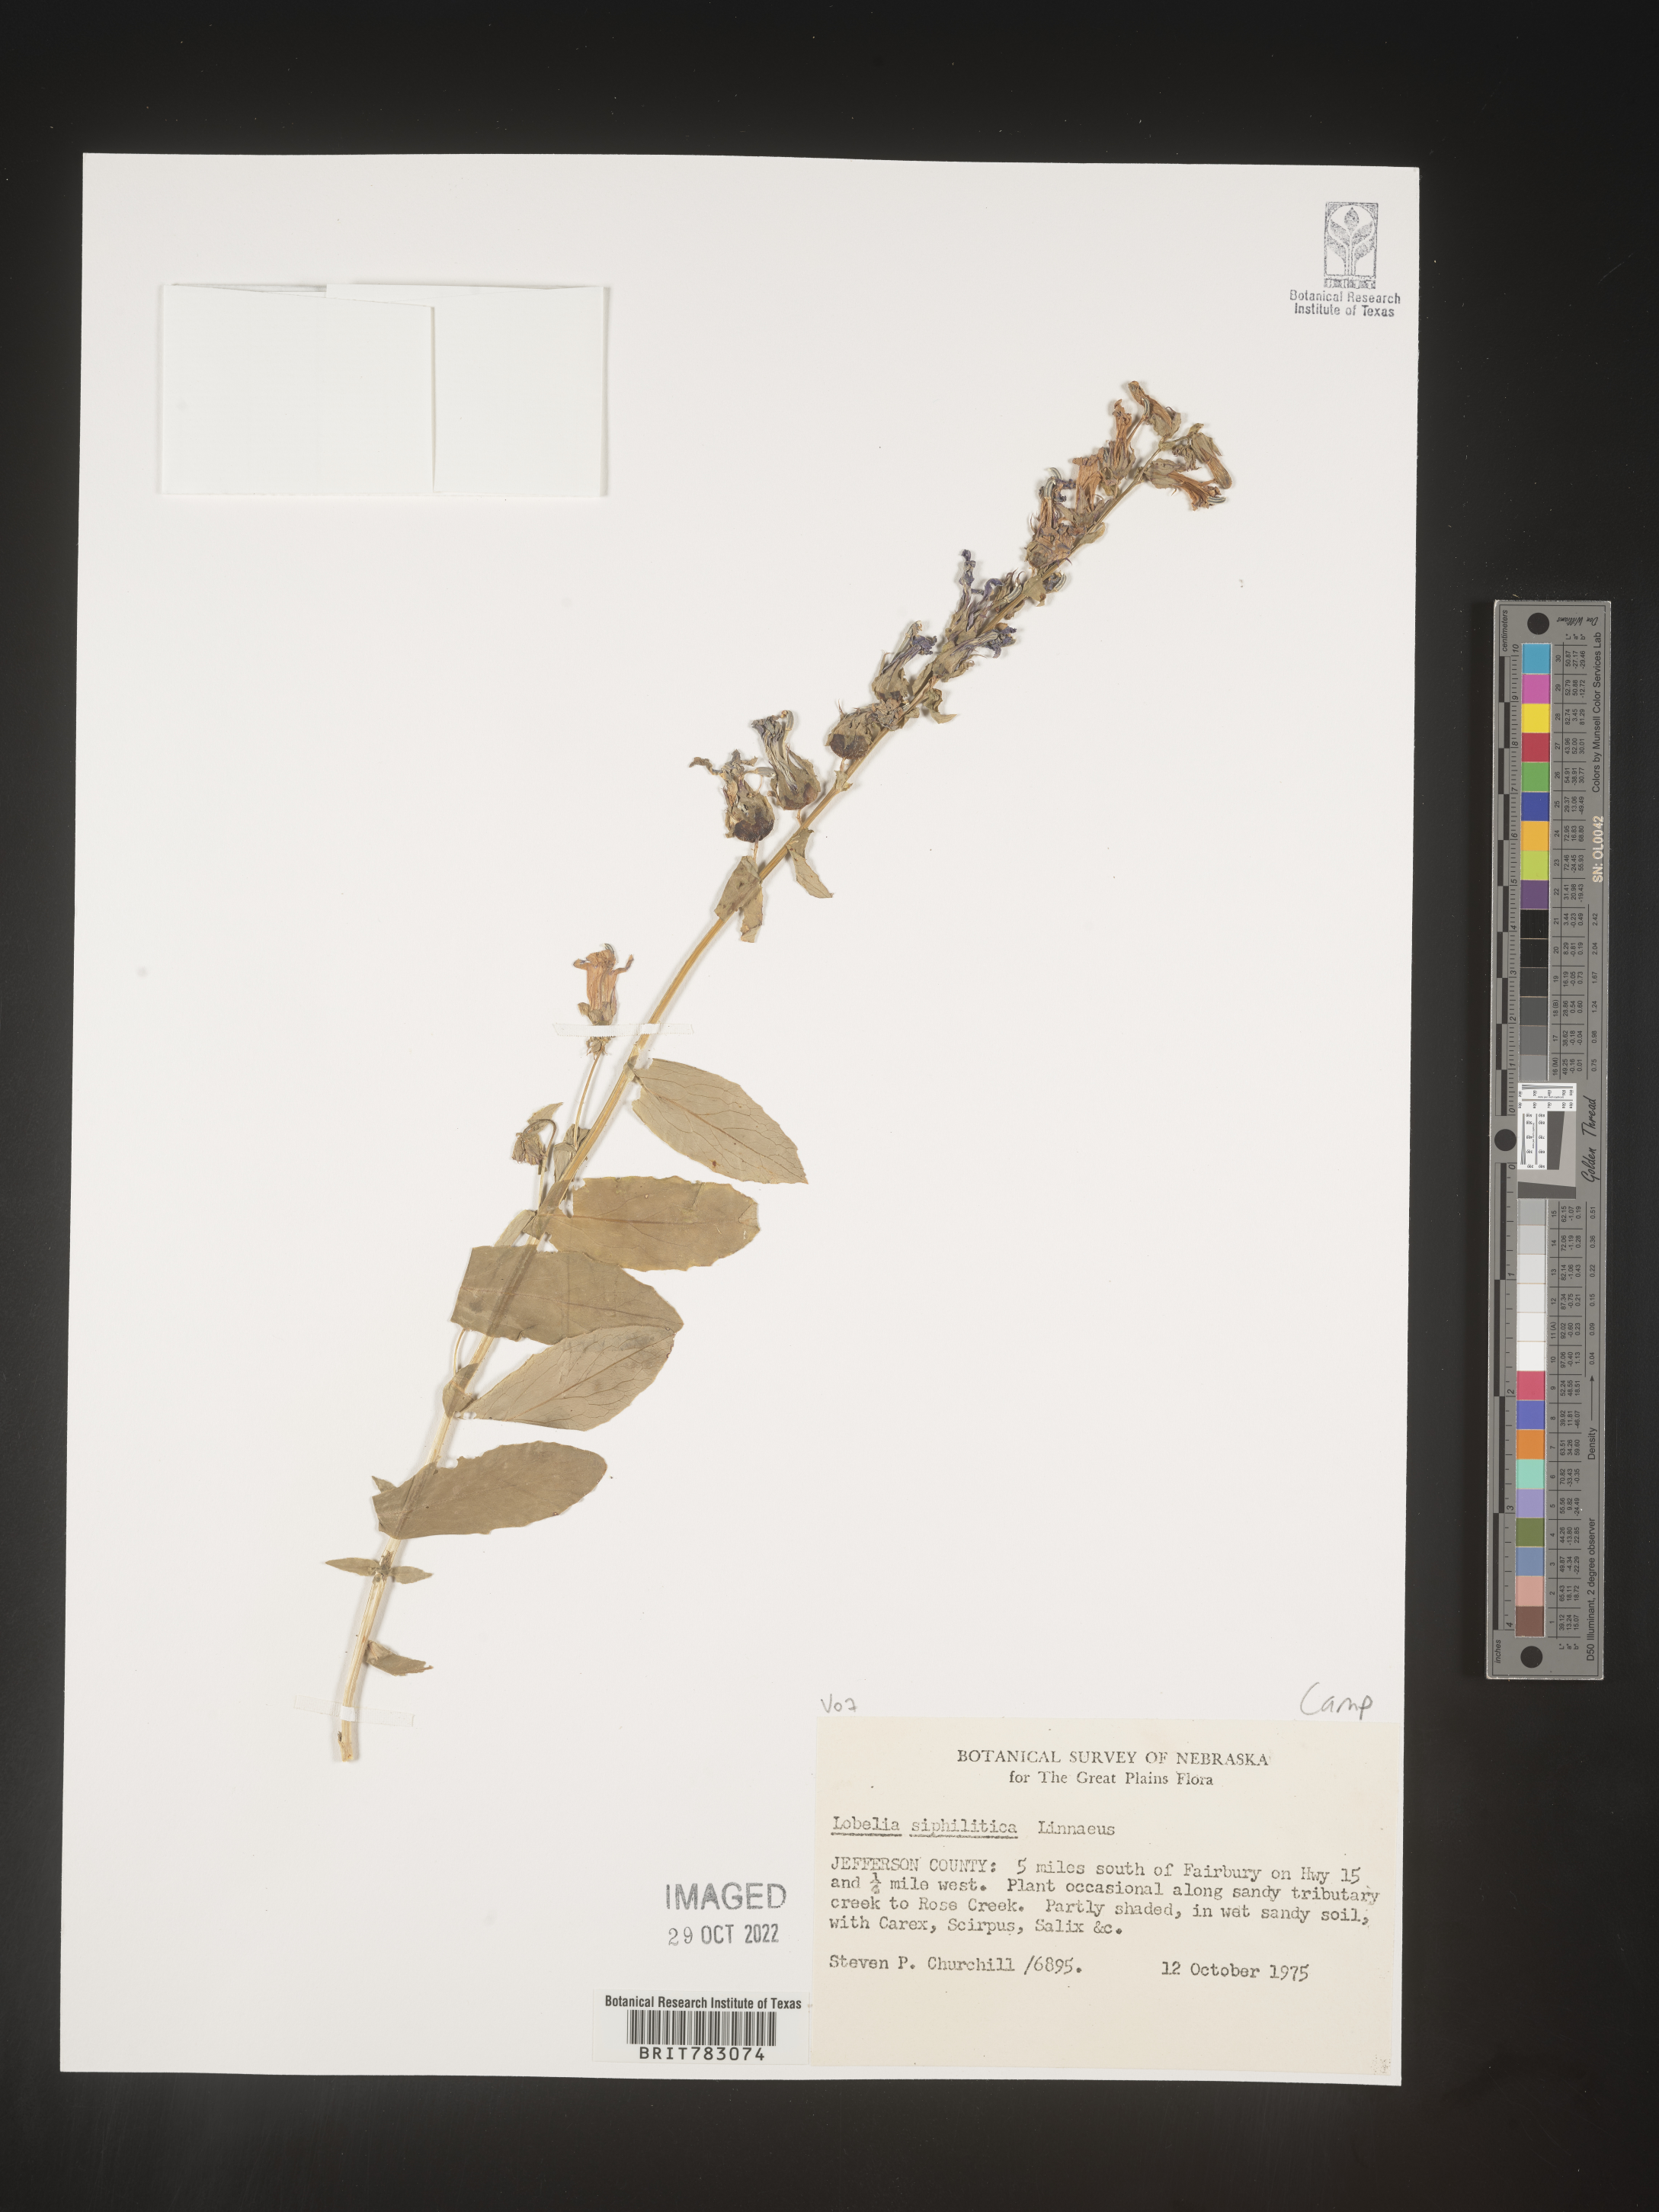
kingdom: Plantae
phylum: Tracheophyta
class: Magnoliopsida
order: Asterales
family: Campanulaceae
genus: Lobelia
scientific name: Lobelia siphilitica
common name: Great lobelia
